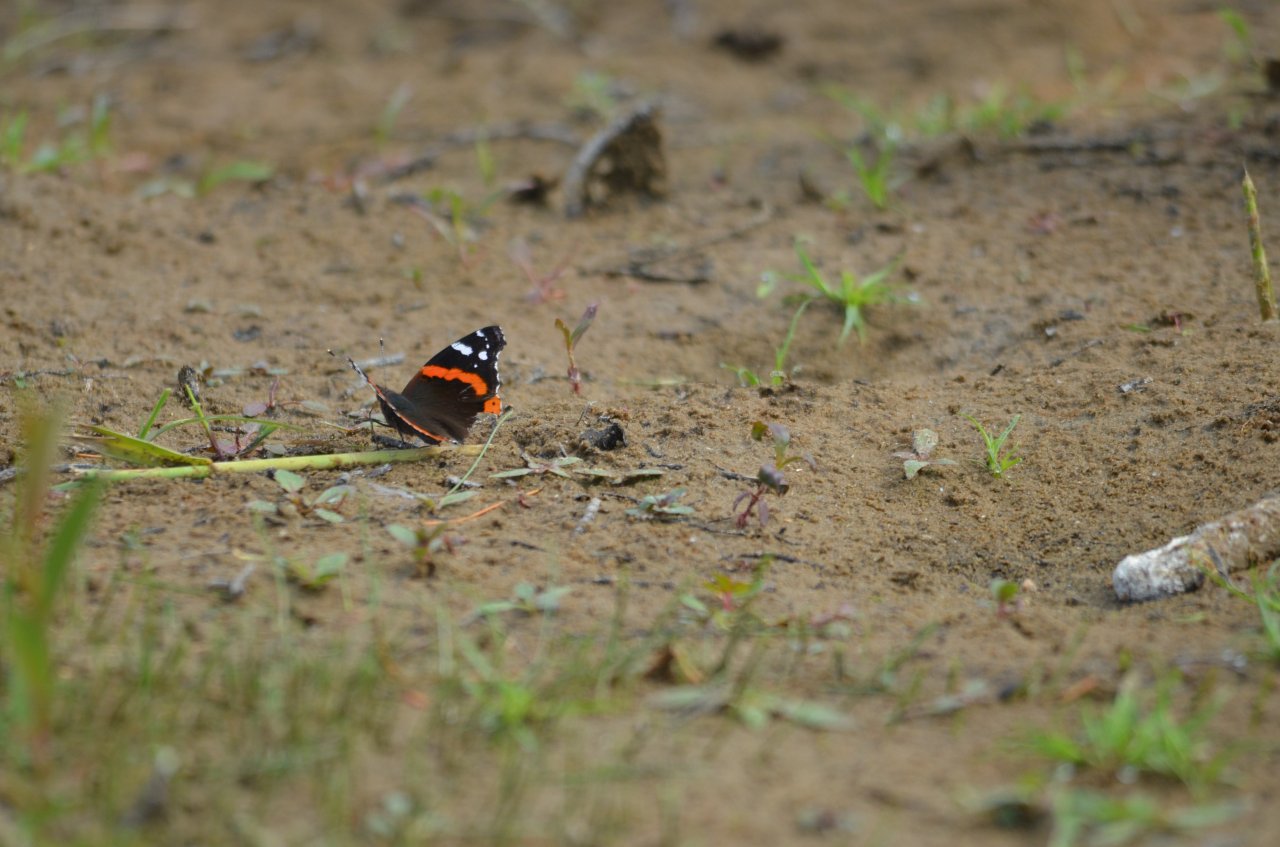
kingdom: Animalia
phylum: Arthropoda
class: Insecta
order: Lepidoptera
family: Nymphalidae
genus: Vanessa
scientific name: Vanessa atalanta
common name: Red Admiral
